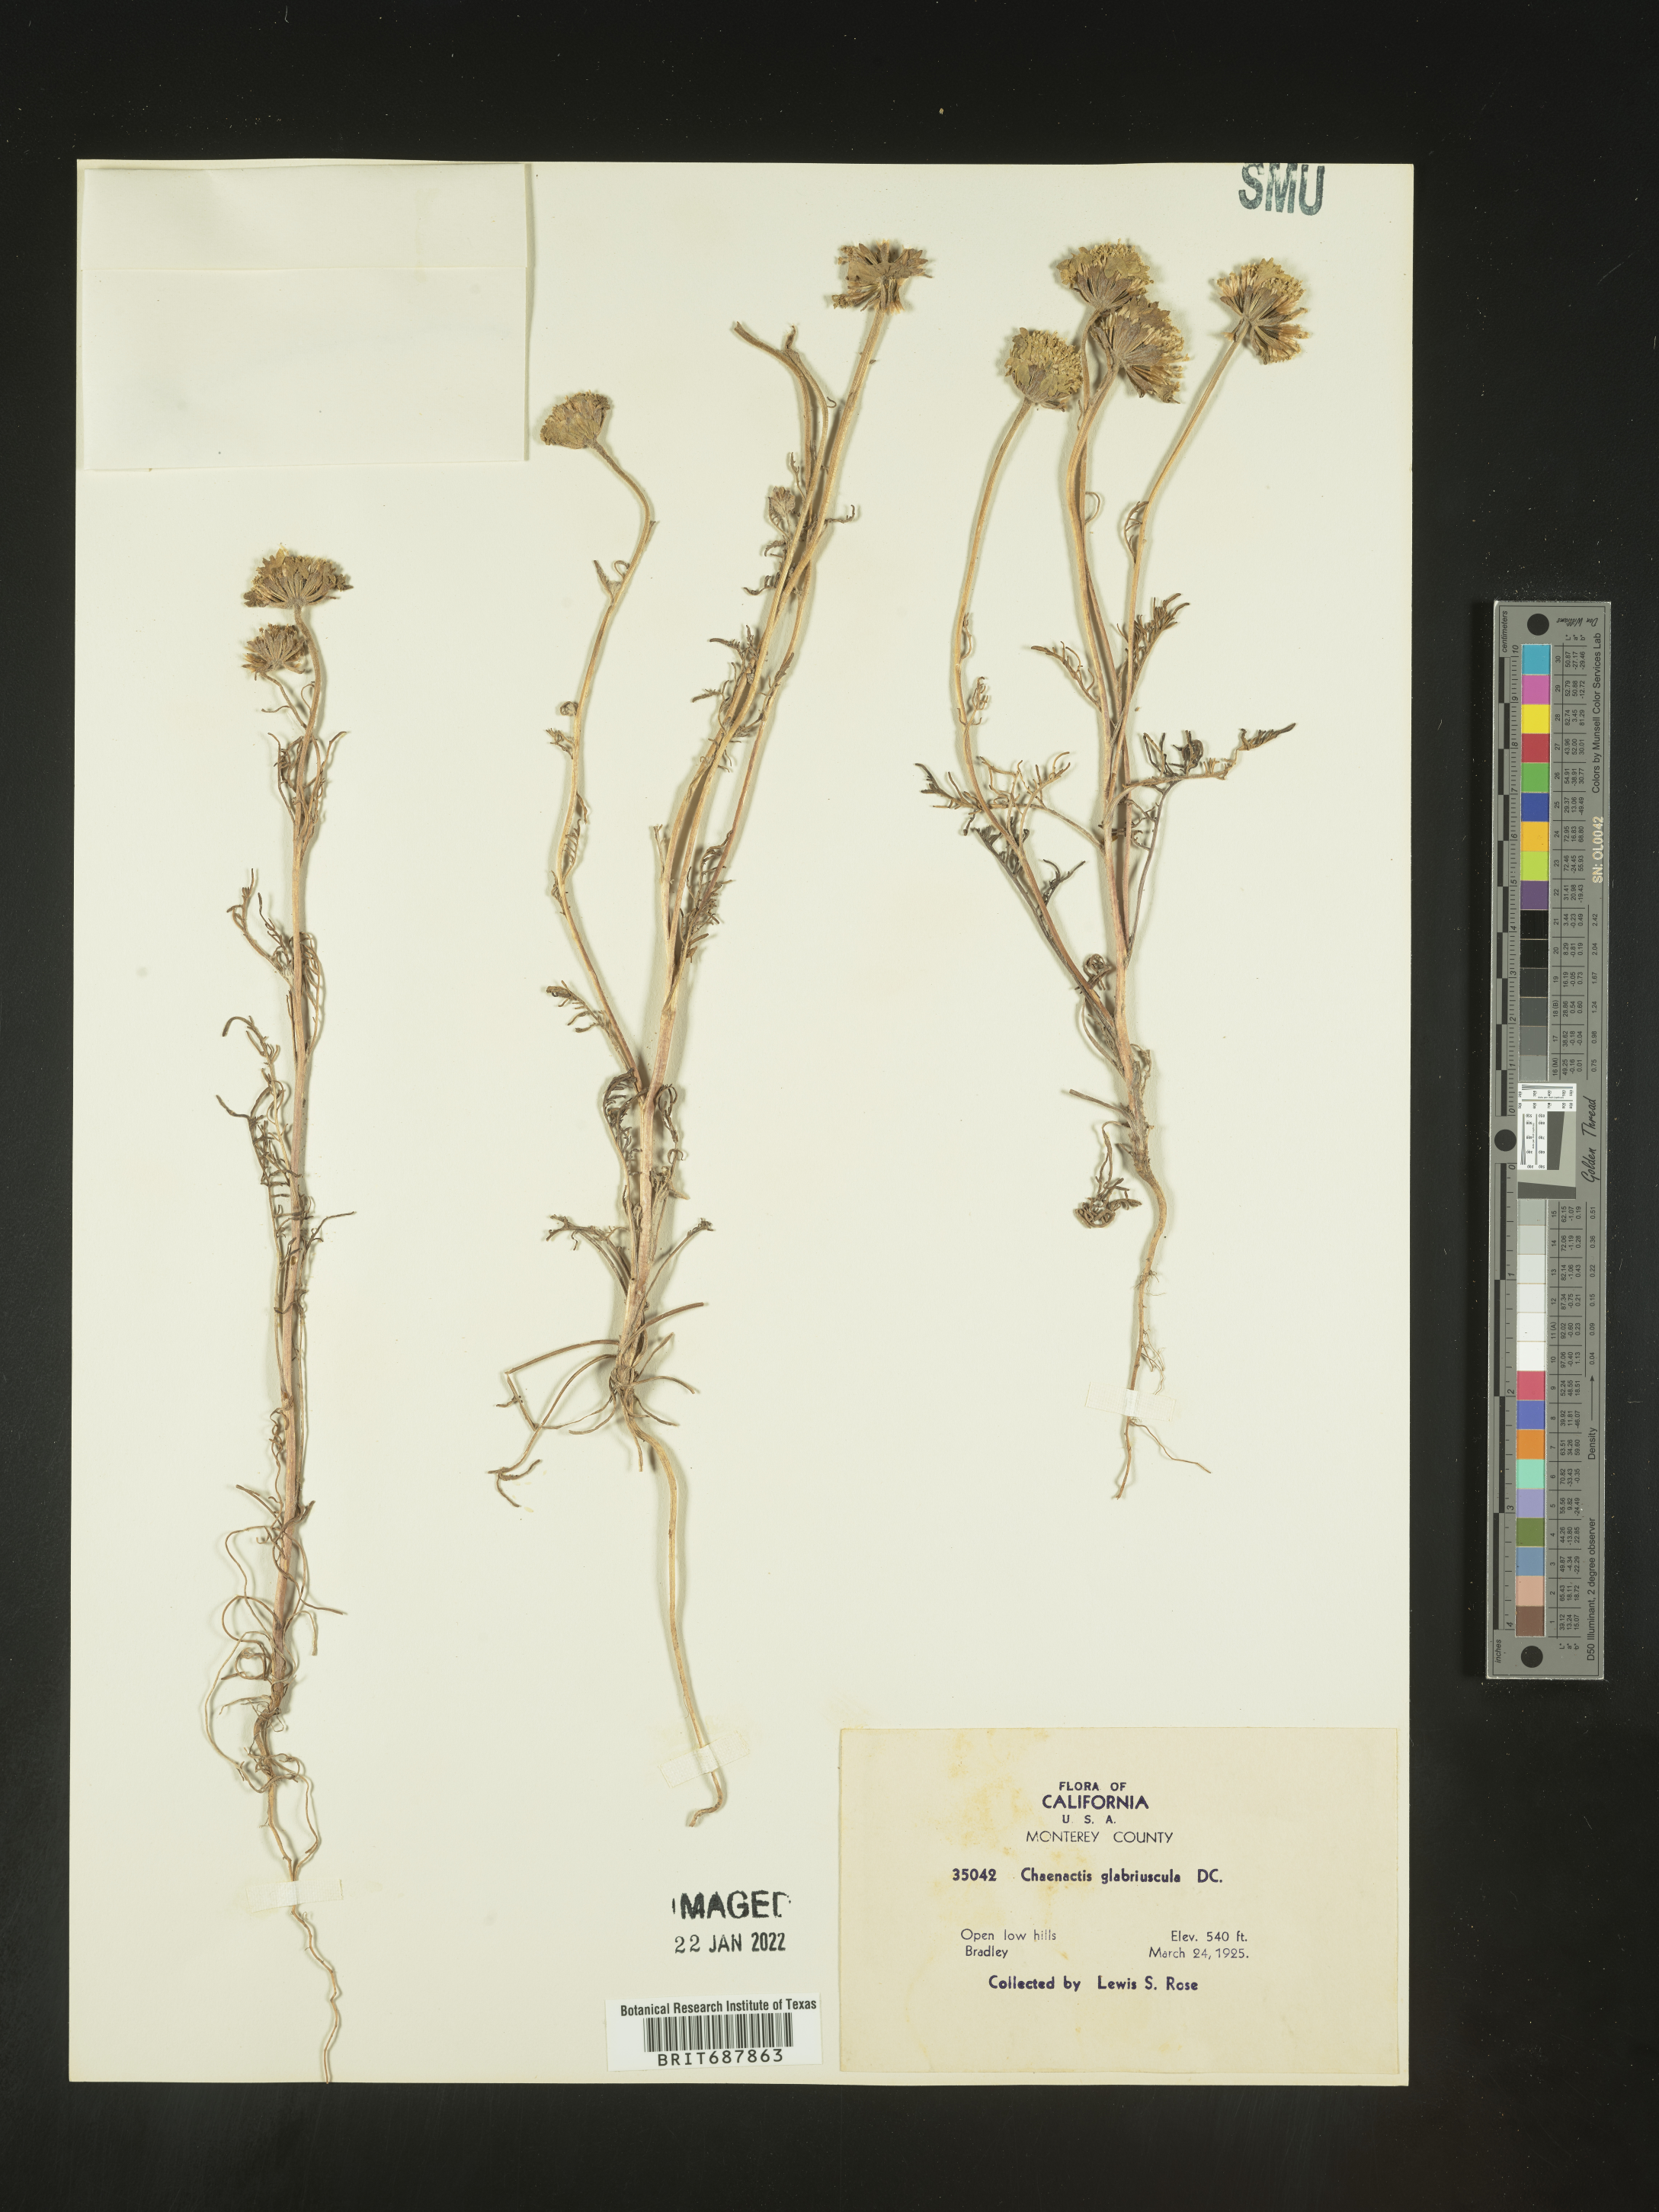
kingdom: Plantae
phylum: Tracheophyta
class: Magnoliopsida
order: Asterales
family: Asteraceae
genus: Chaenactis
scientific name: Chaenactis glabriuscula
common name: Yellow pincushion
